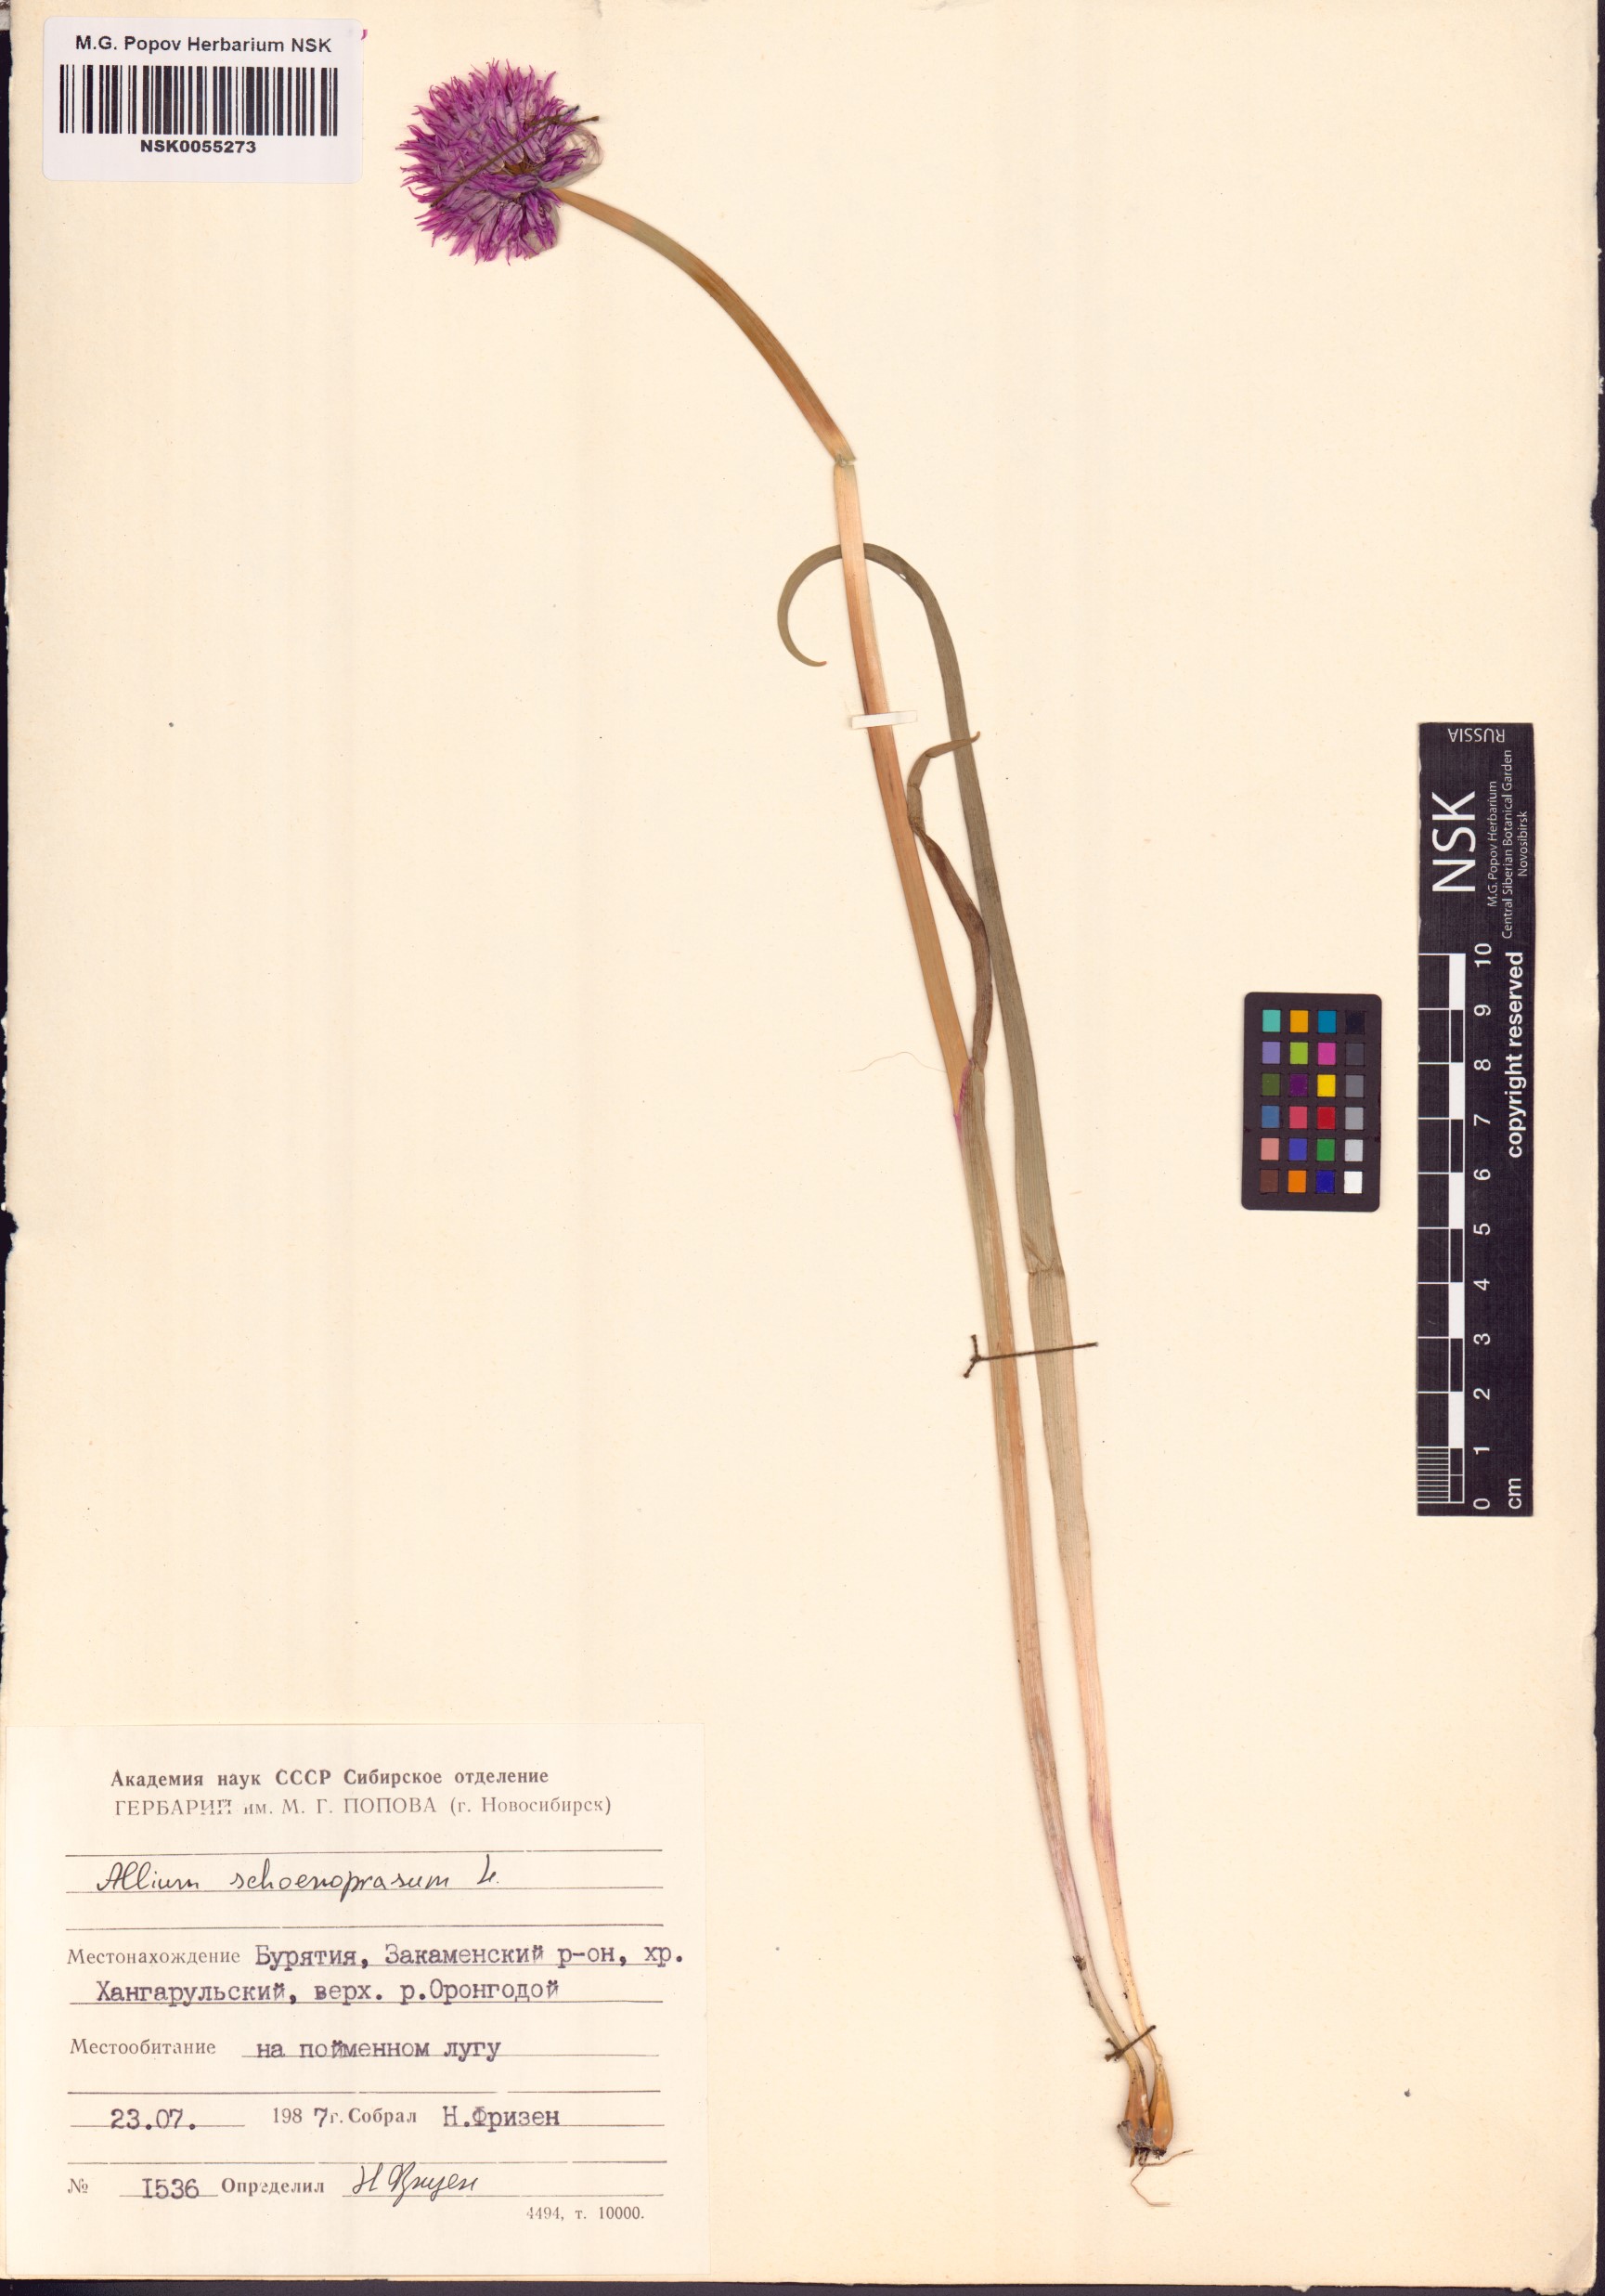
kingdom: Plantae
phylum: Tracheophyta
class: Liliopsida
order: Asparagales
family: Amaryllidaceae
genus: Allium
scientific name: Allium schoenoprasum
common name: Chives
